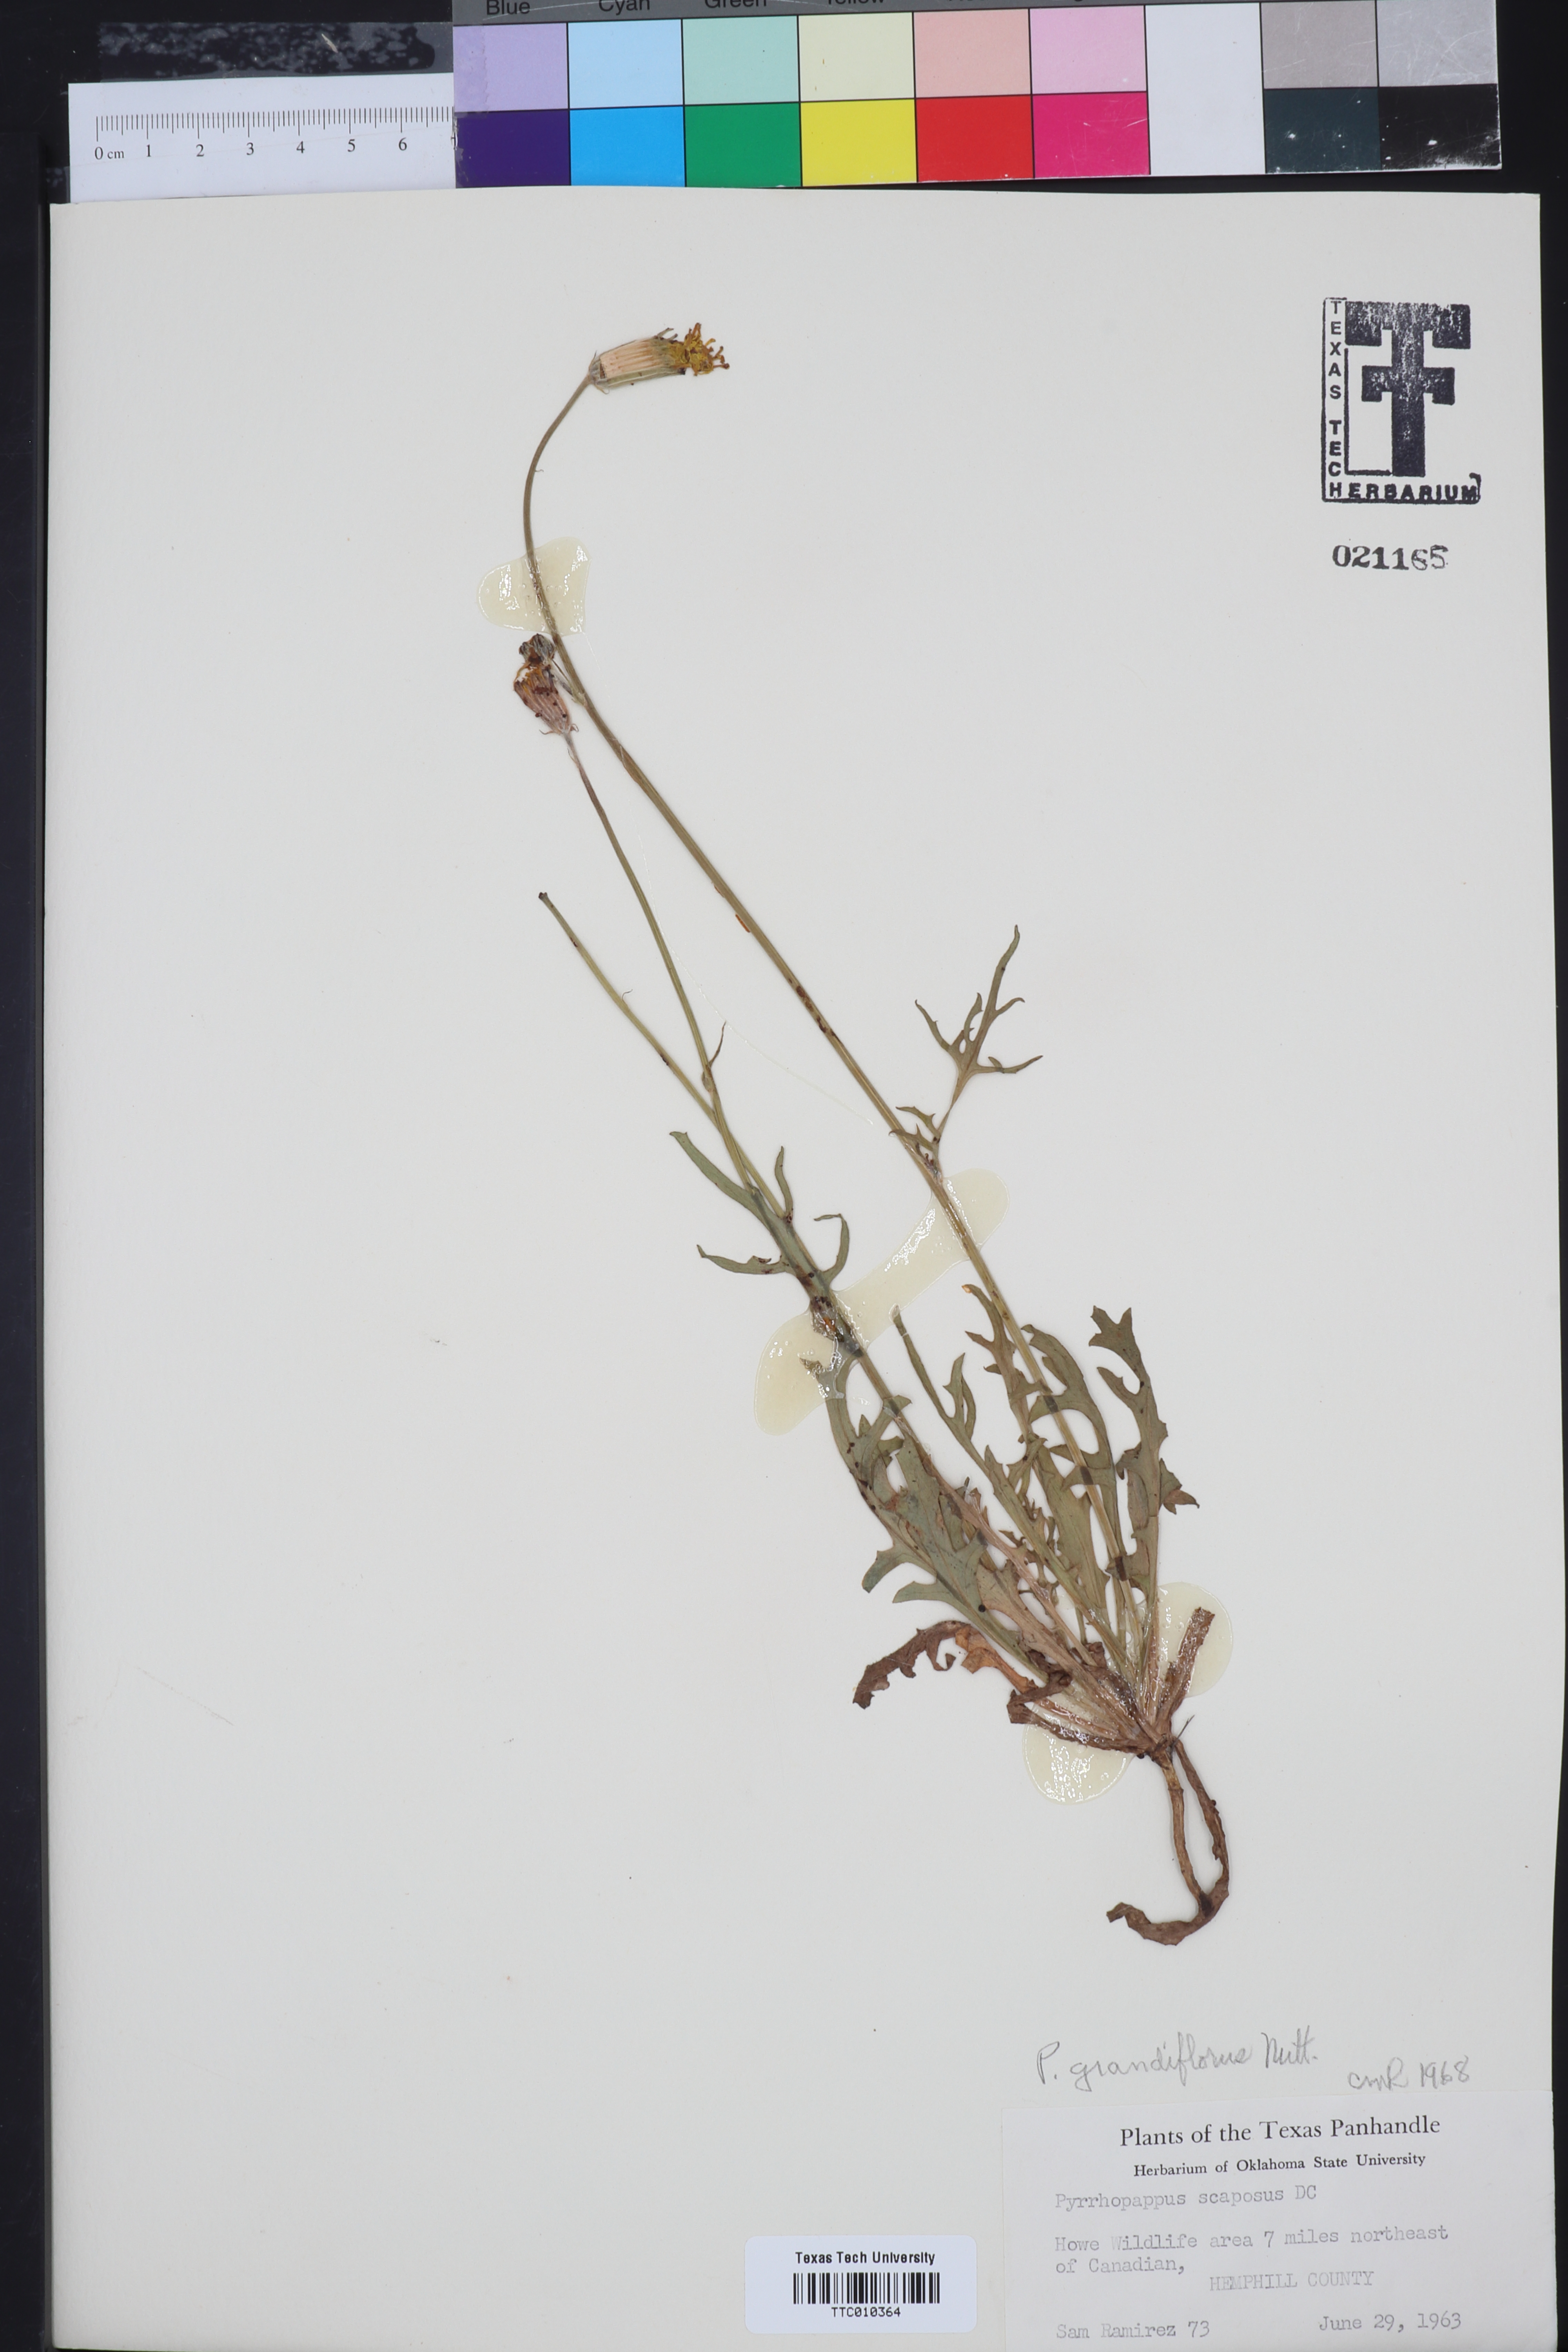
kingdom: Plantae
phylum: Tracheophyta
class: Magnoliopsida
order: Asterales
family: Asteraceae
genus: Pyrrhopappus
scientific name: Pyrrhopappus grandiflorus
